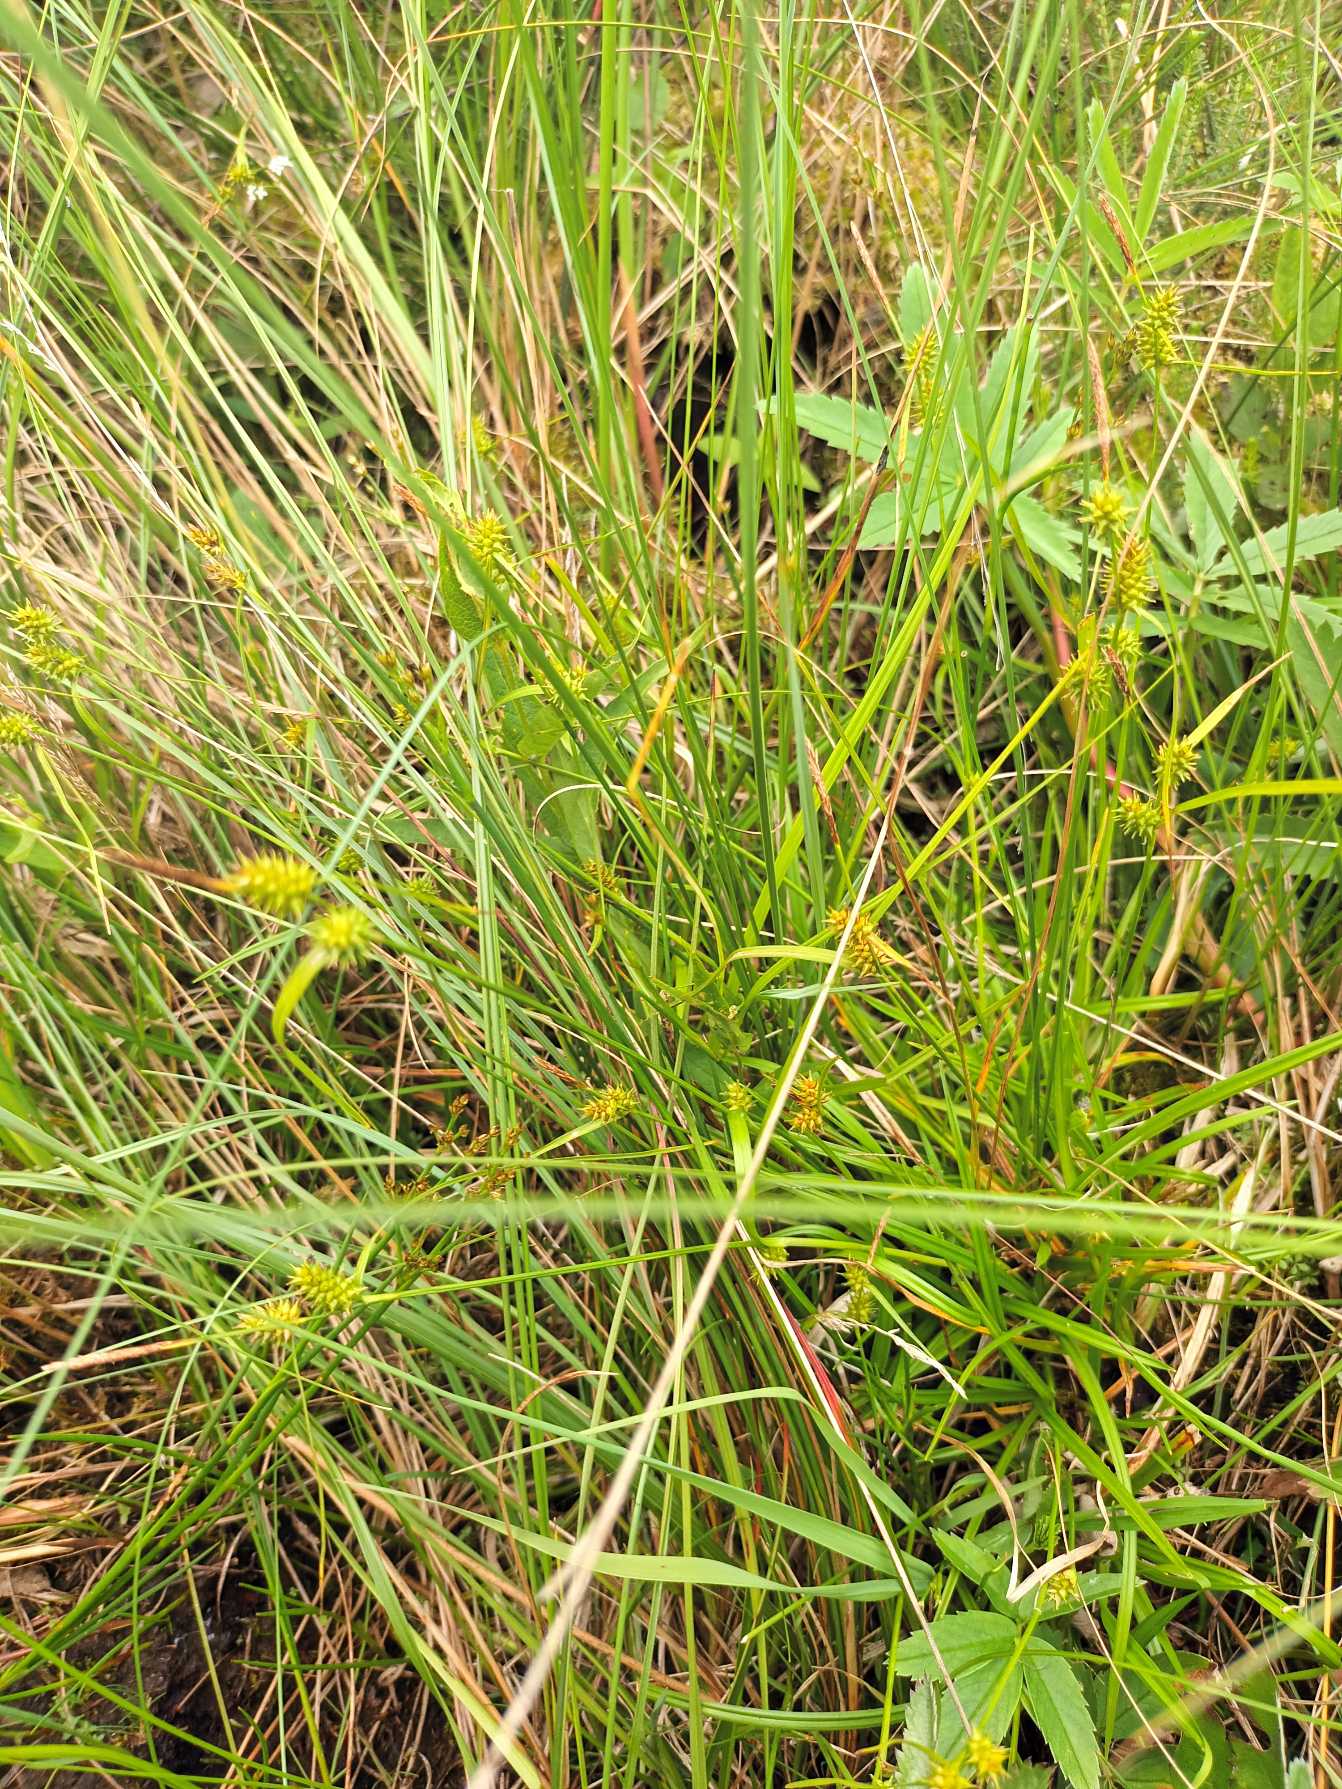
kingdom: Plantae
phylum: Tracheophyta
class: Liliopsida
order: Poales
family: Cyperaceae
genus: Carex
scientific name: Carex demissa
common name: Grøn star
